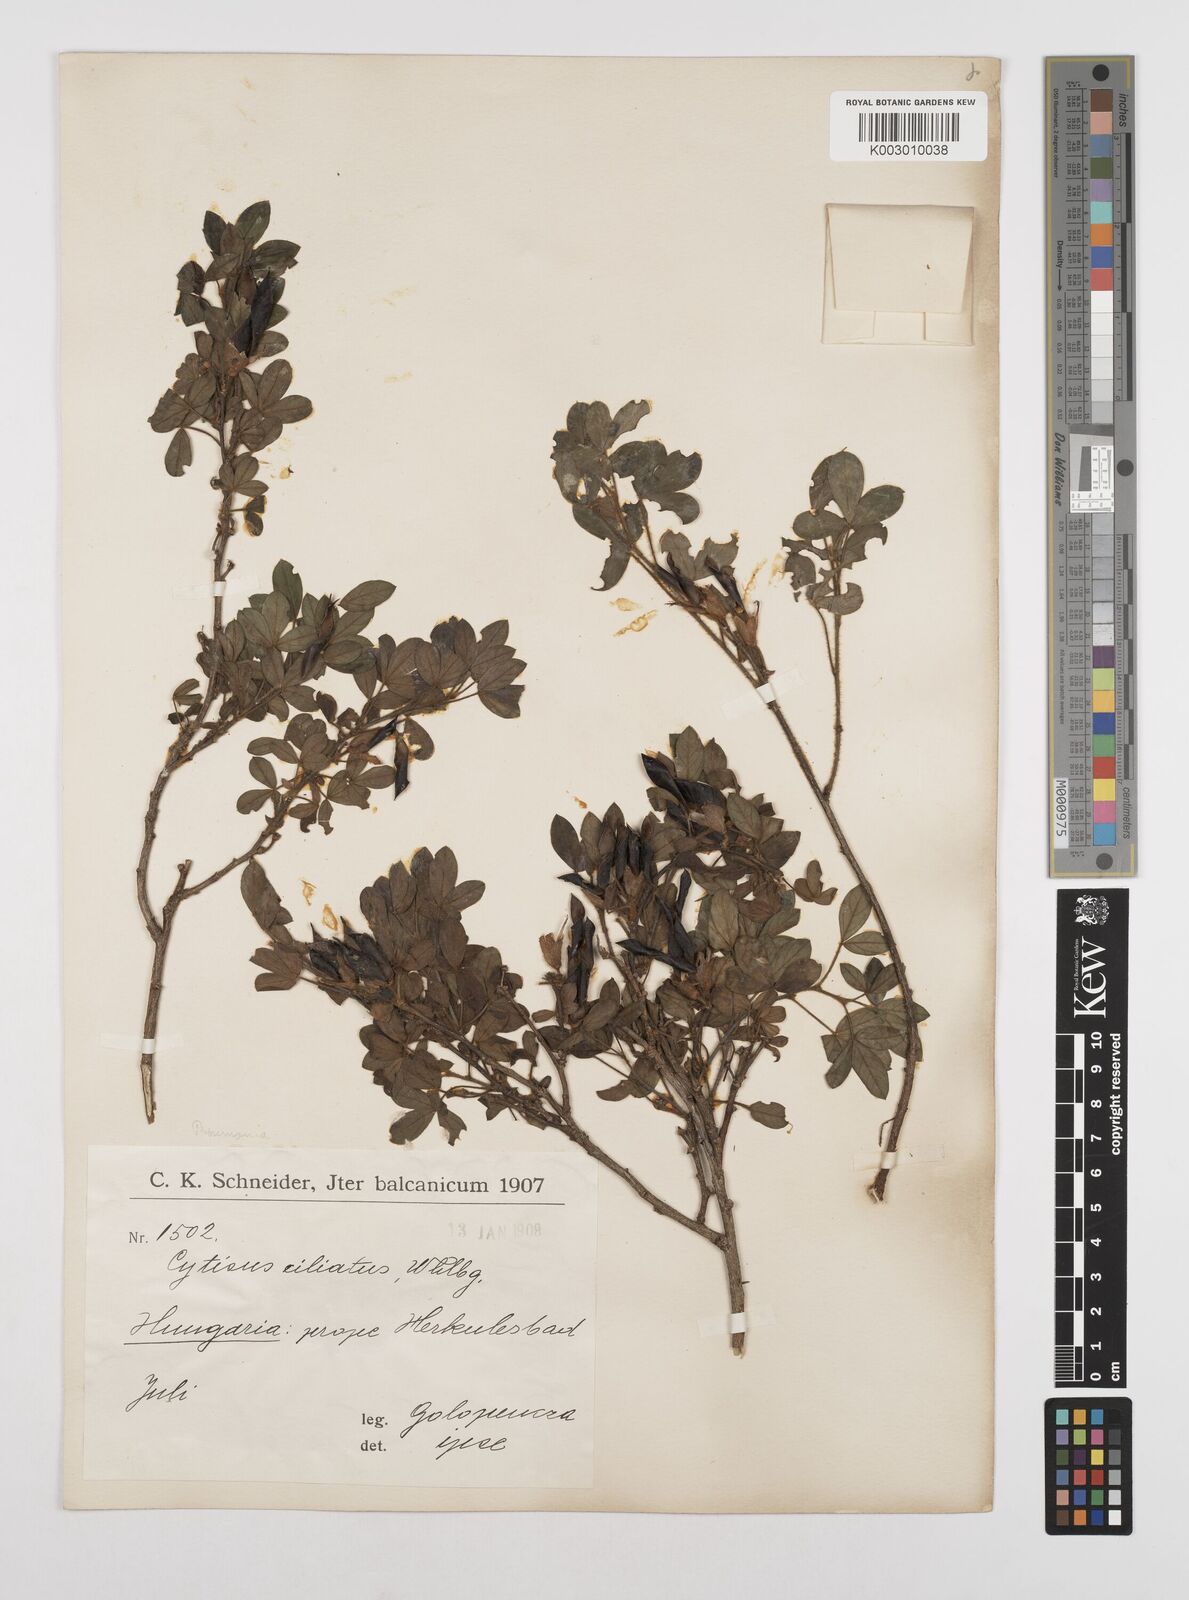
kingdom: Plantae
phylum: Tracheophyta
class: Magnoliopsida
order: Fabales
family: Fabaceae
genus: Chamaecytisus
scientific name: Chamaecytisus hirsutus
